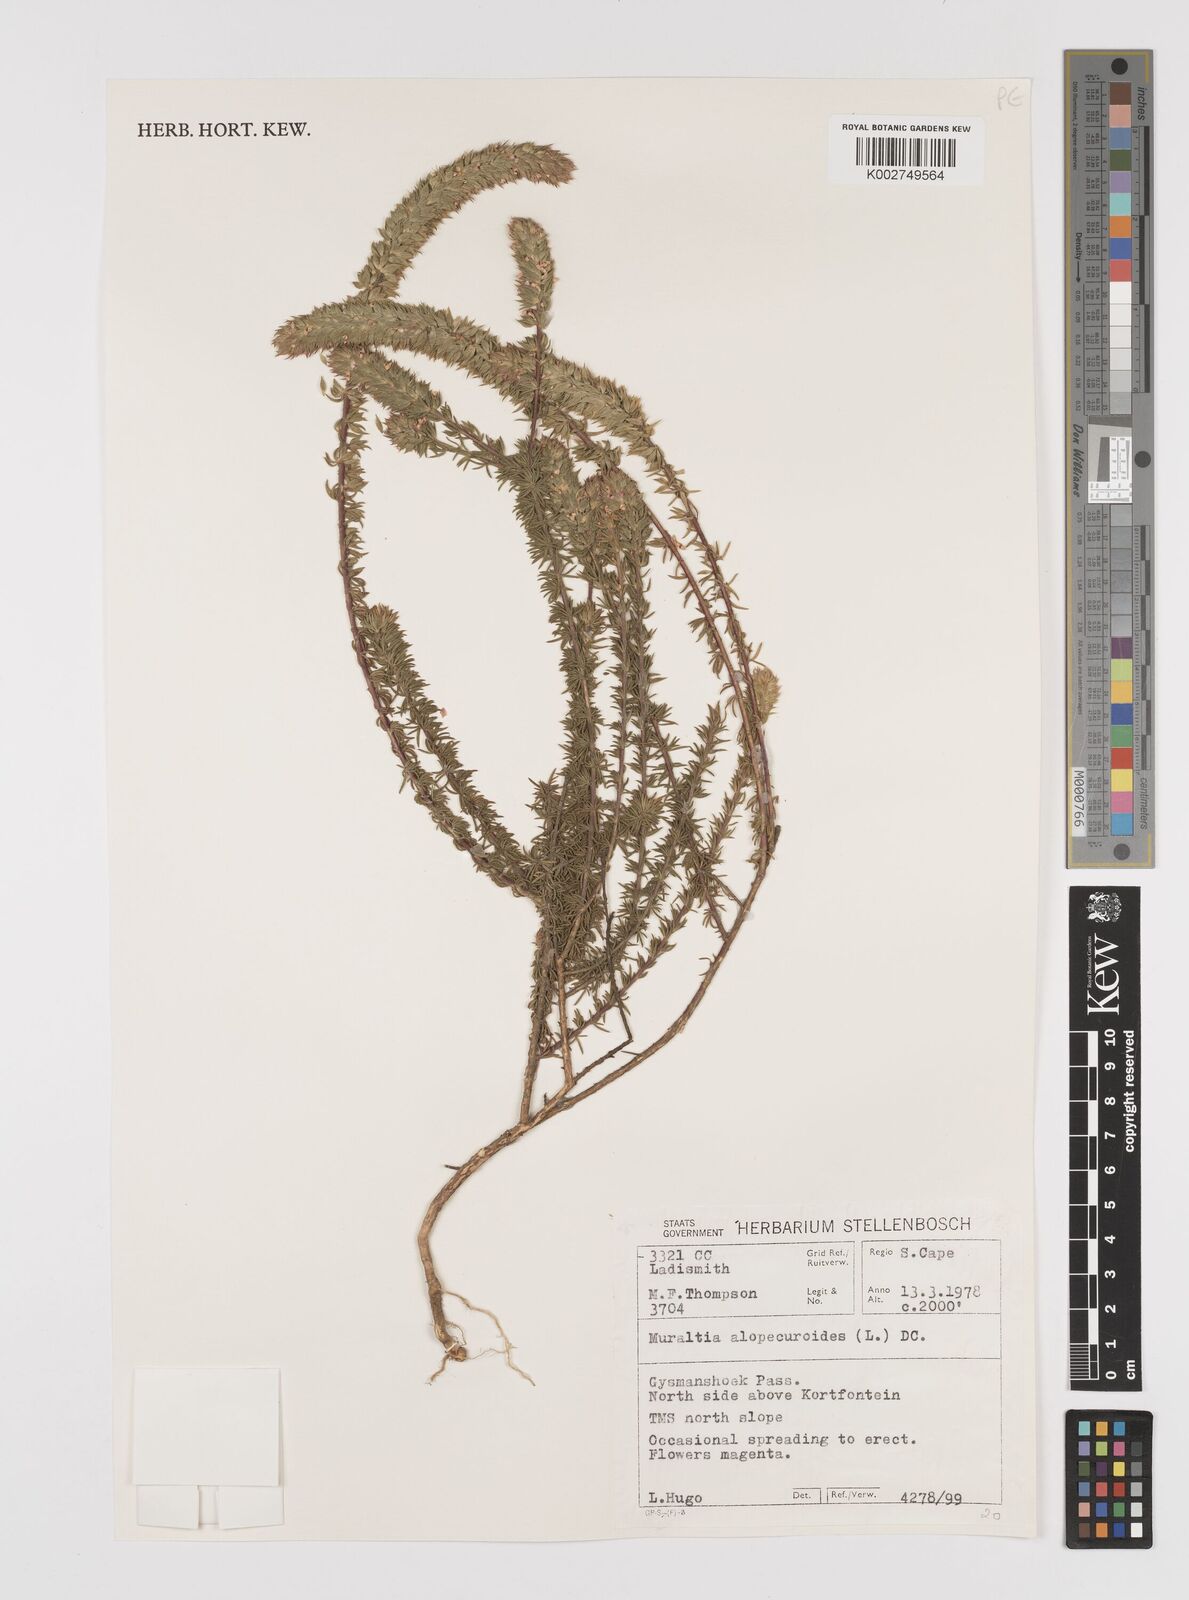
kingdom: Plantae
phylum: Tracheophyta
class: Magnoliopsida
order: Fabales
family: Polygalaceae
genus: Muraltia
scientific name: Muraltia alopecuroides
